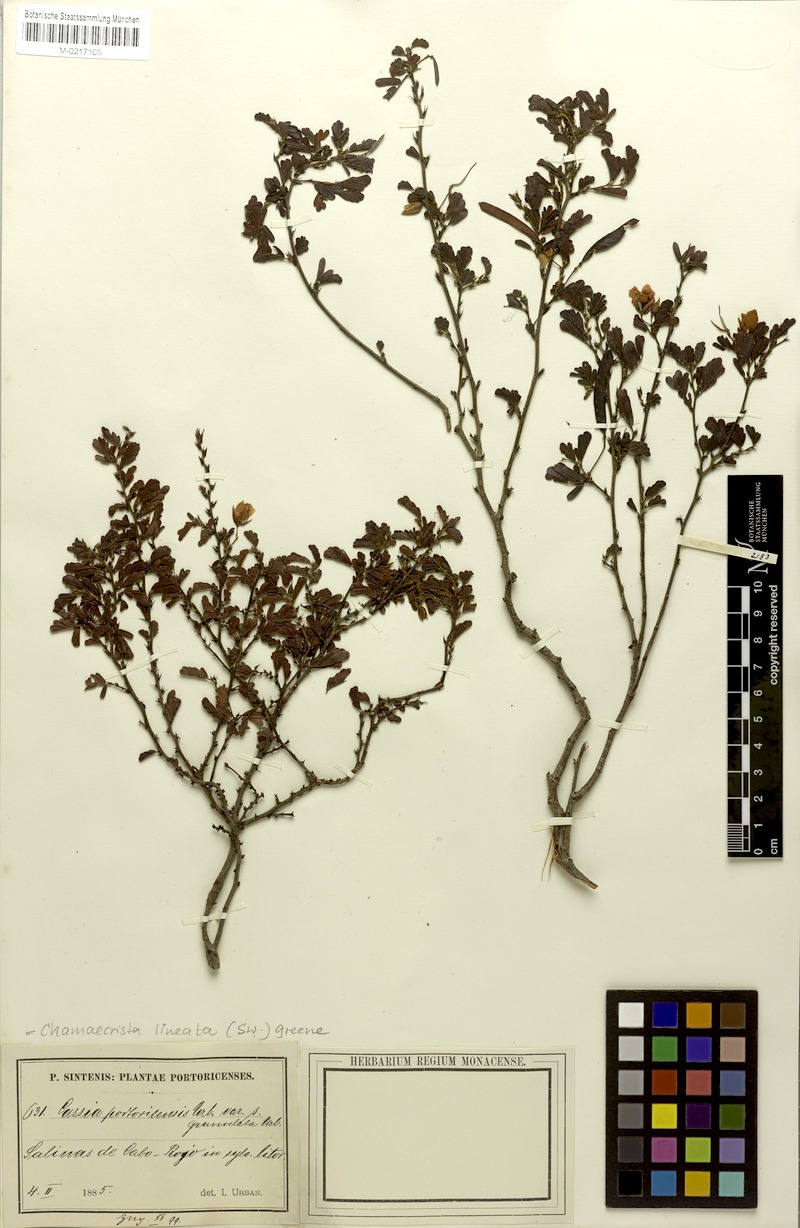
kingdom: Plantae
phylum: Tracheophyta
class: Magnoliopsida
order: Fabales
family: Fabaceae
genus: Chamaecrista
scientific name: Chamaecrista lineata
